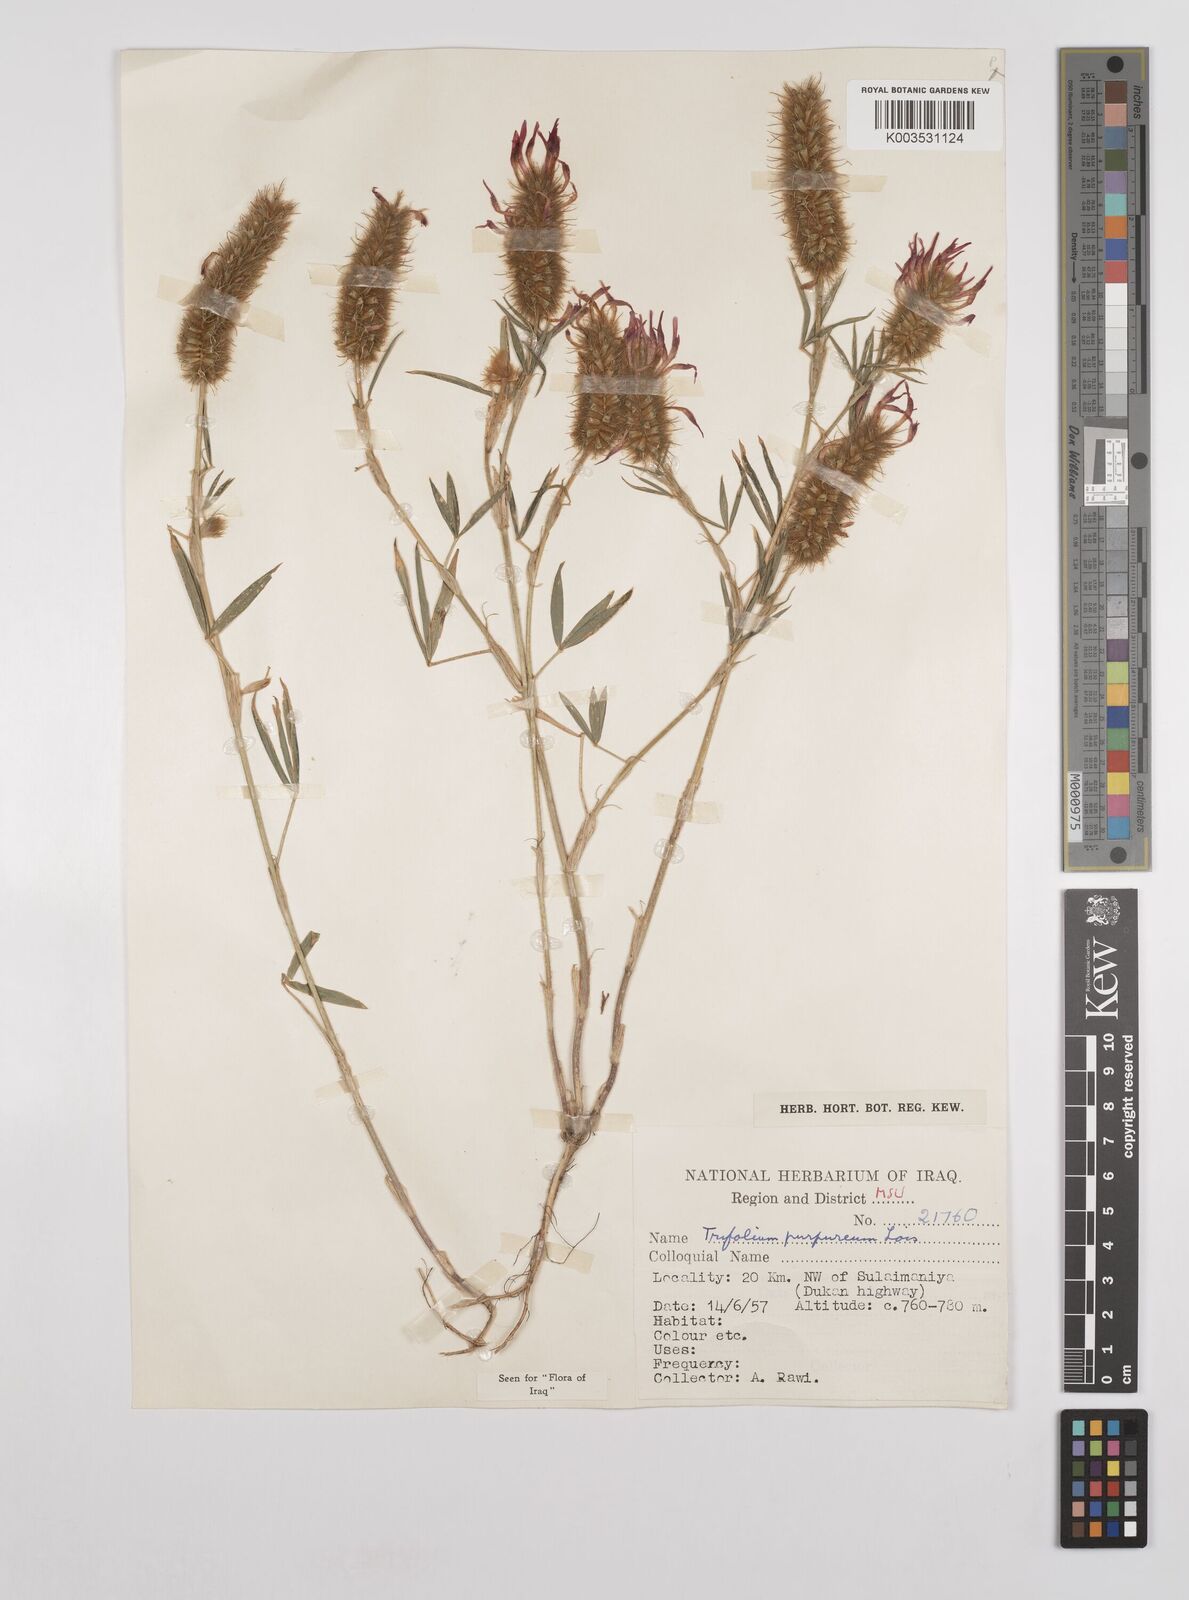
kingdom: Plantae
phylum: Tracheophyta
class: Magnoliopsida
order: Fabales
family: Fabaceae
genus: Trifolium
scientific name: Trifolium purpureum
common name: Purple clover
